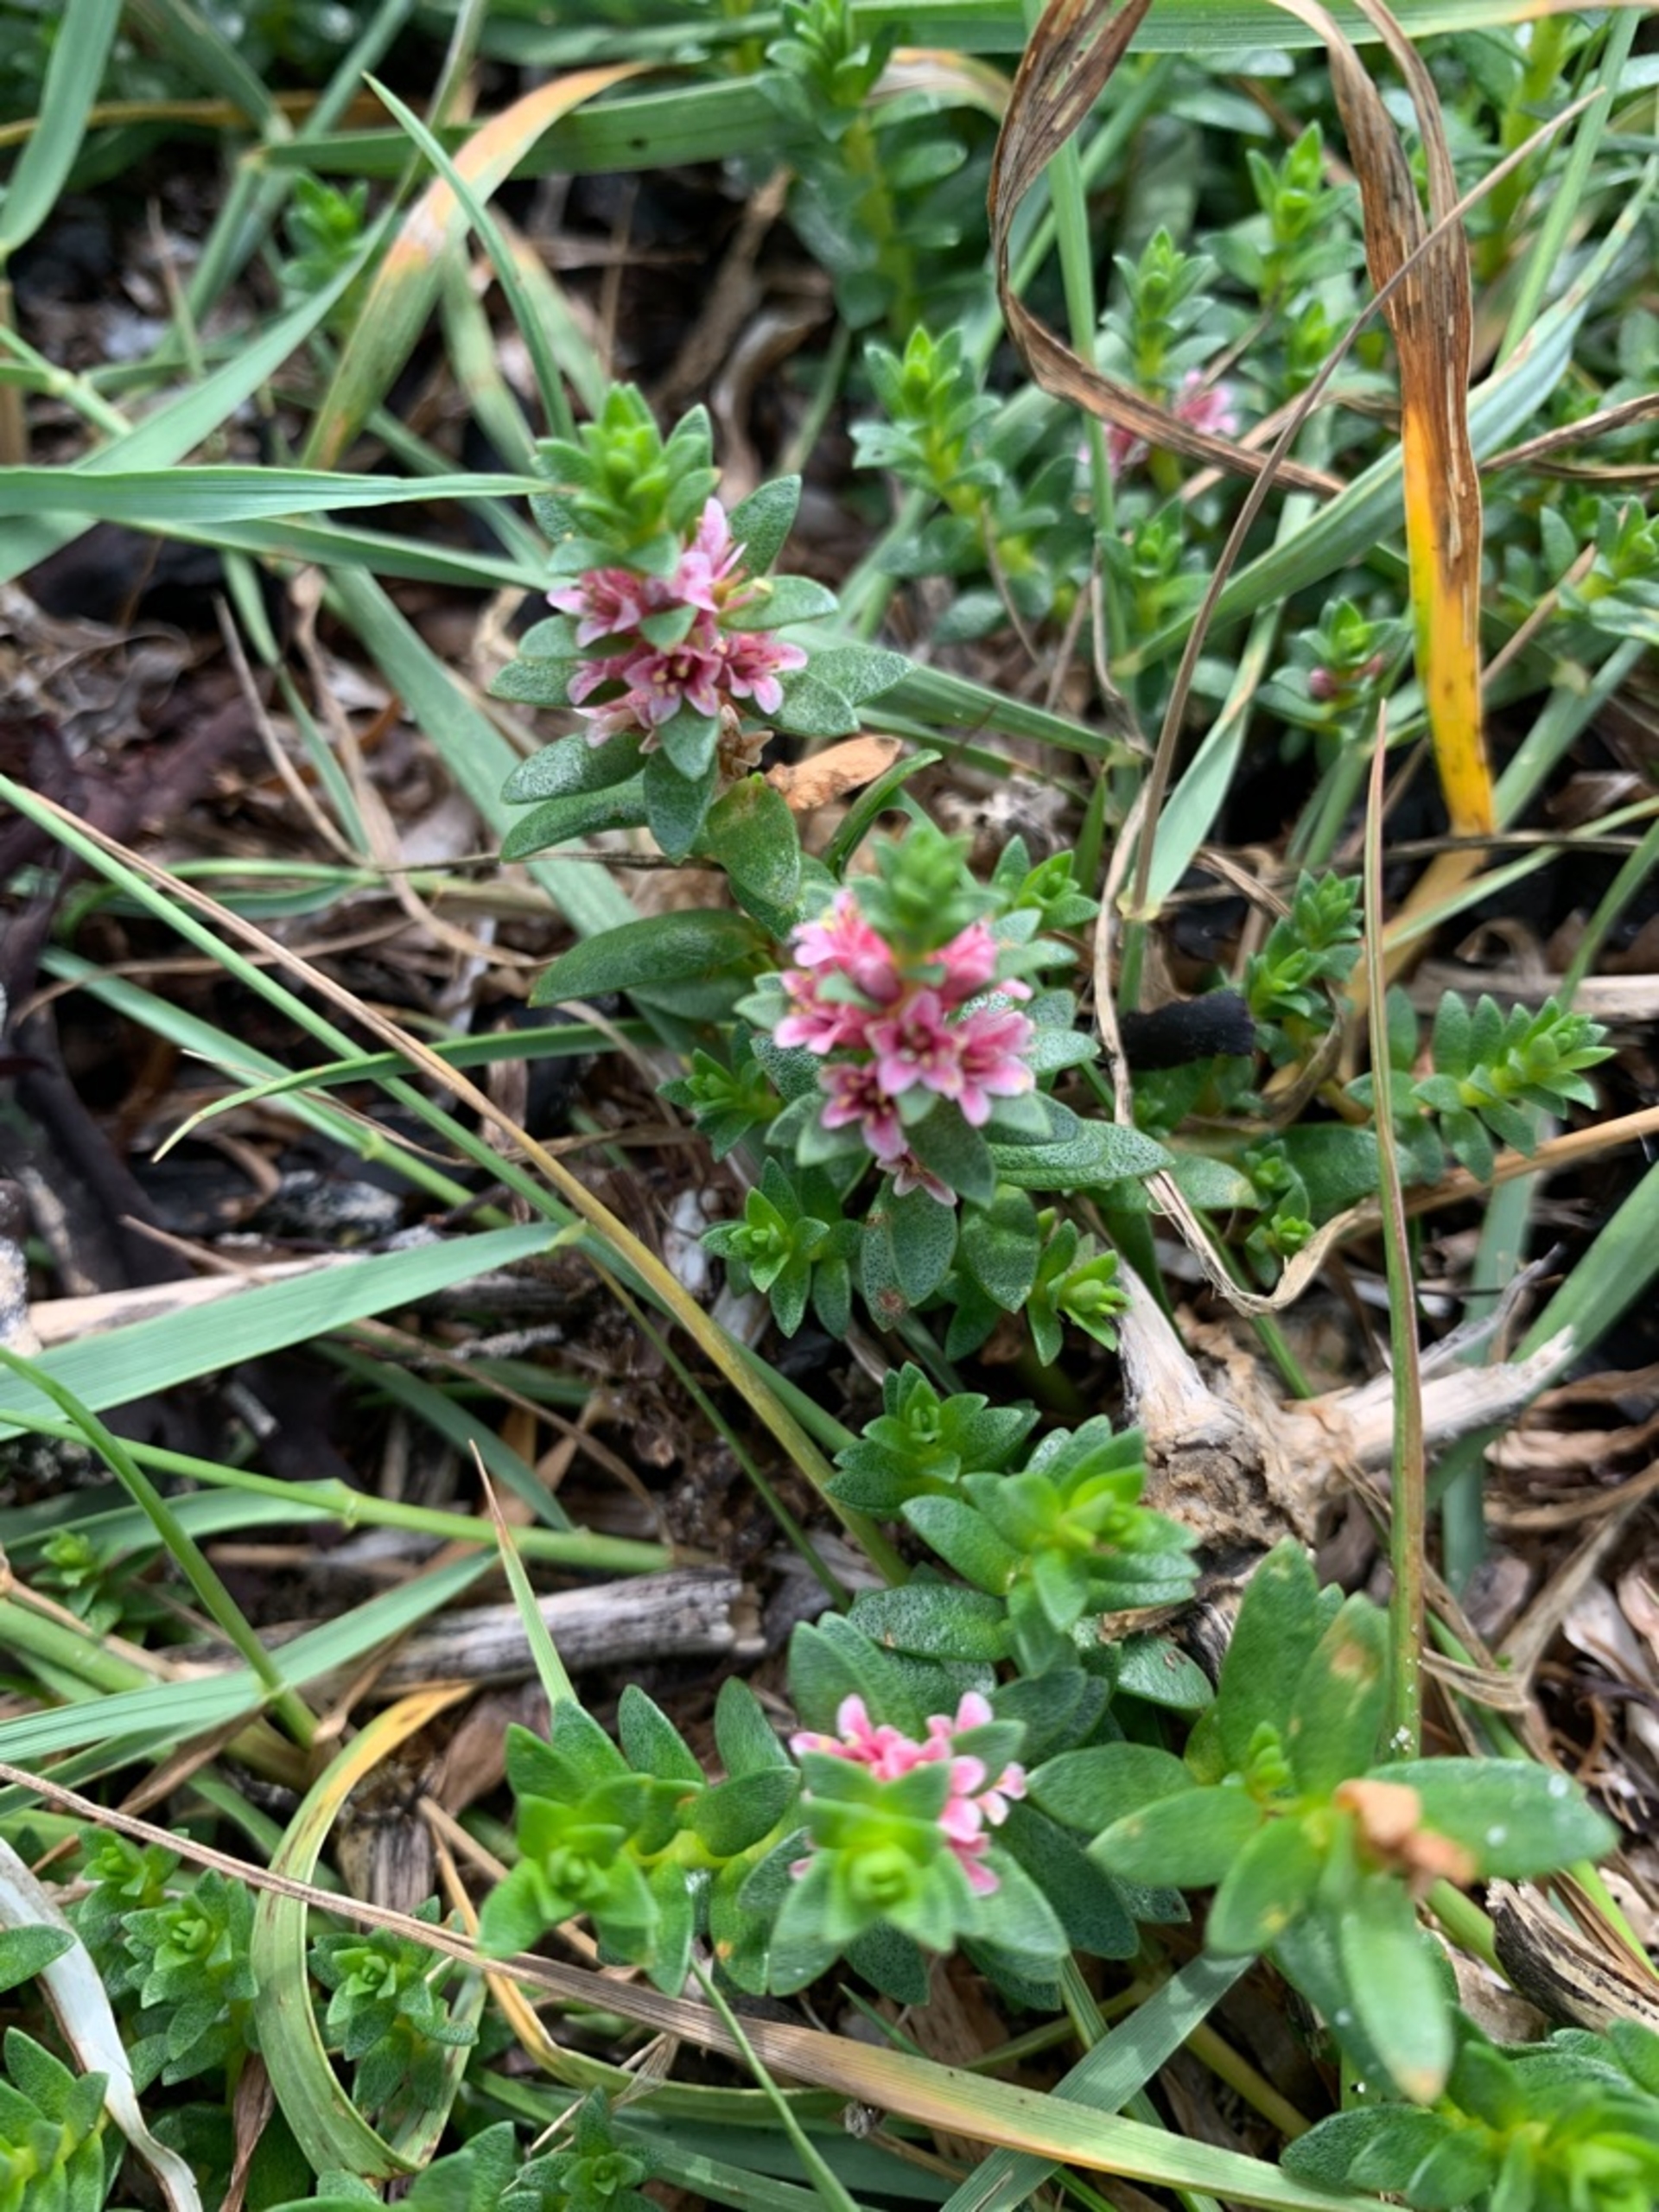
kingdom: Plantae
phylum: Tracheophyta
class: Magnoliopsida
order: Ericales
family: Primulaceae
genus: Lysimachia
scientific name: Lysimachia maritima
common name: Sandkryb
